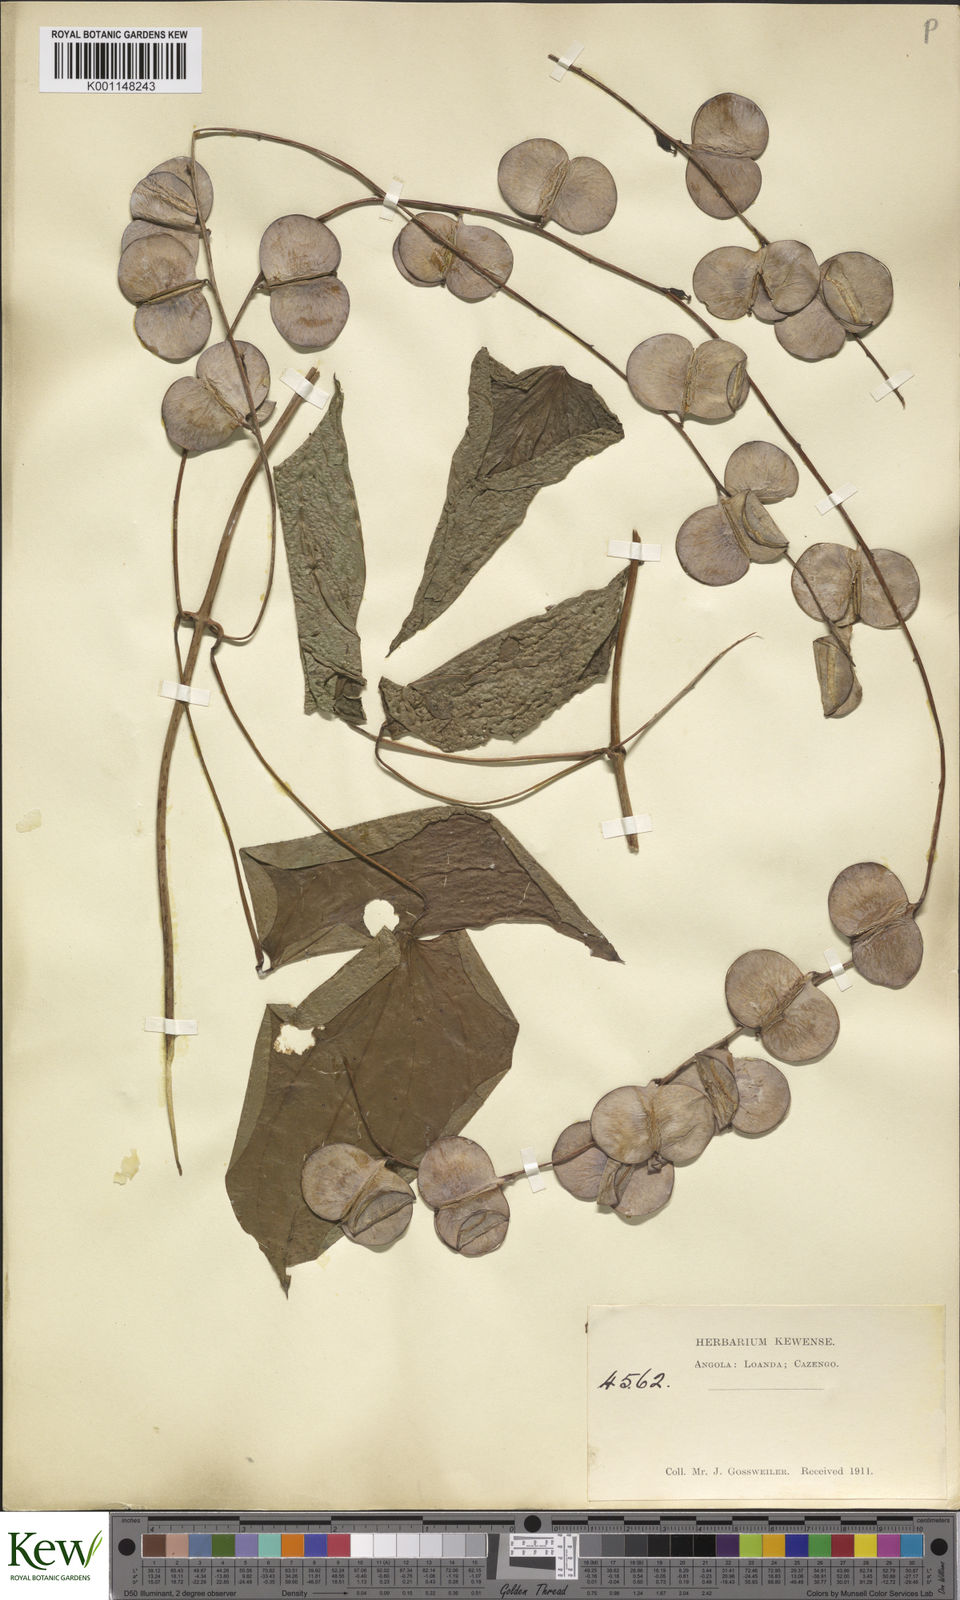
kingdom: Plantae
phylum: Tracheophyta
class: Liliopsida
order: Dioscoreales
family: Dioscoreaceae
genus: Dioscorea
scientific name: Dioscorea cayenensis
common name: Attoto yam
